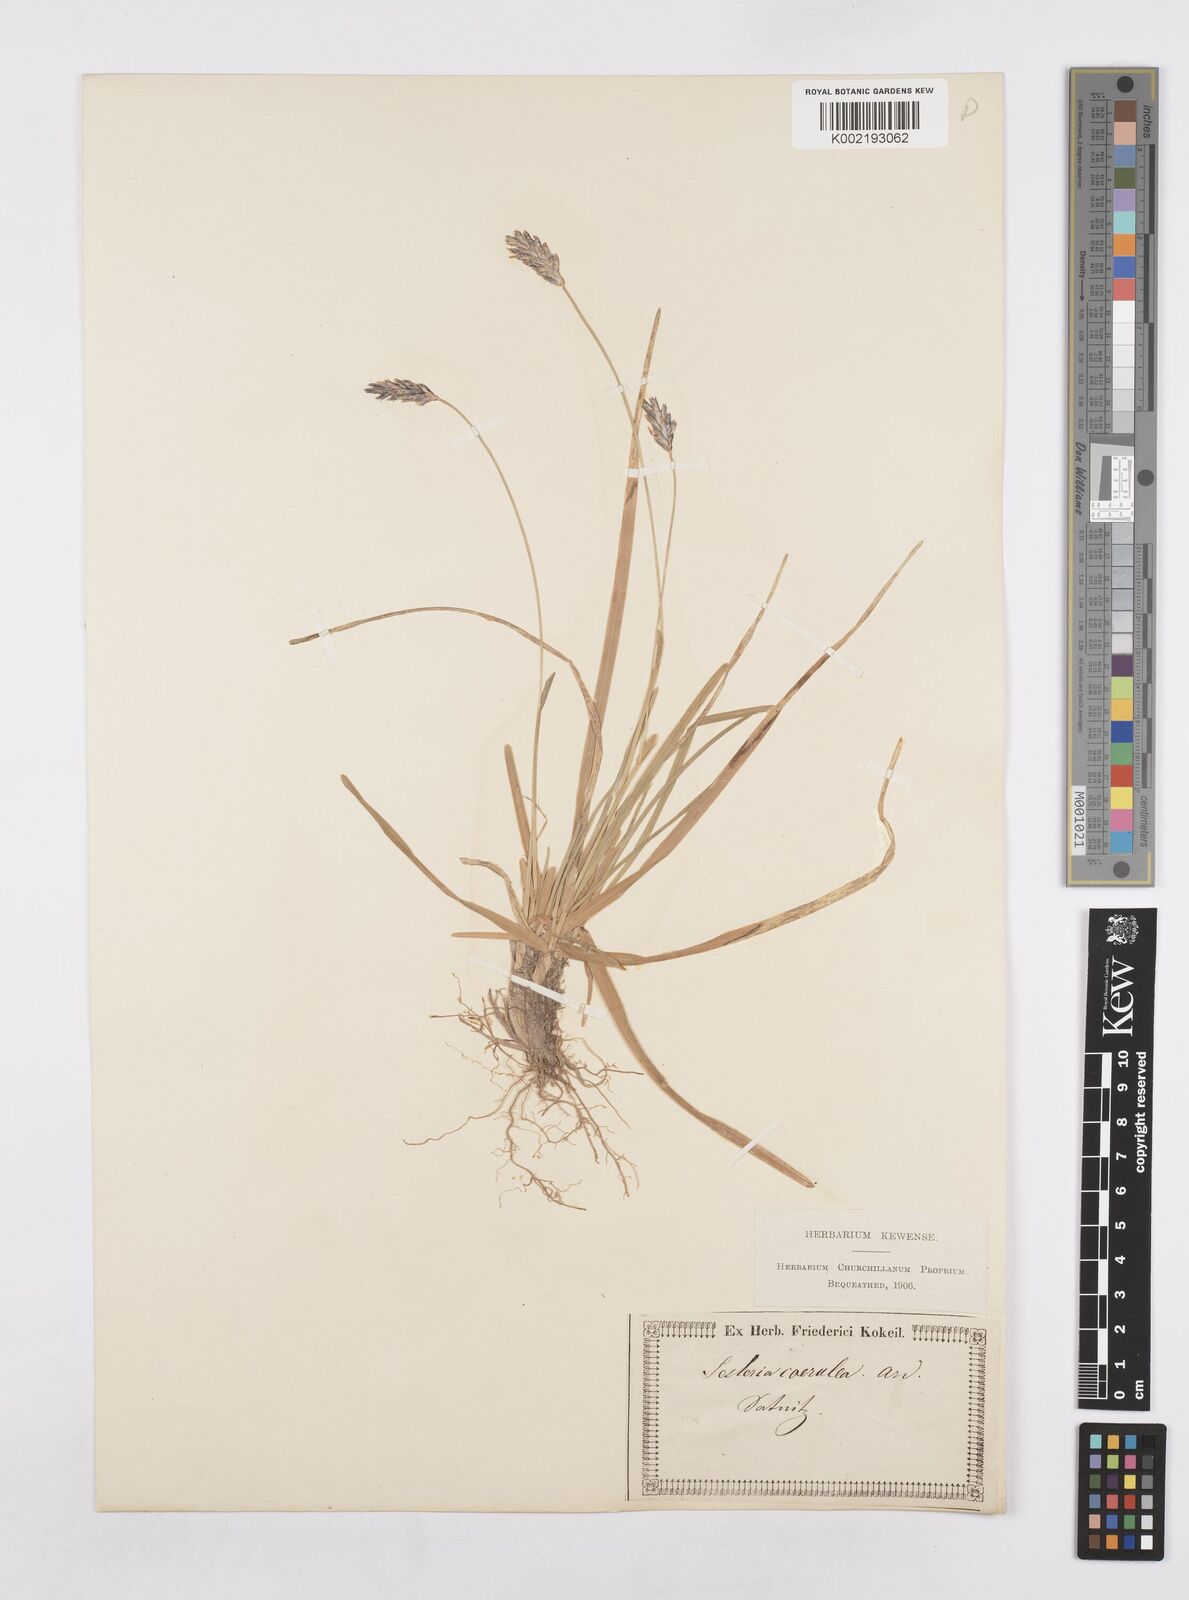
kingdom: Plantae
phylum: Tracheophyta
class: Liliopsida
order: Poales
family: Poaceae
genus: Sesleria
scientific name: Sesleria caerulea
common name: Blue moor-grass
